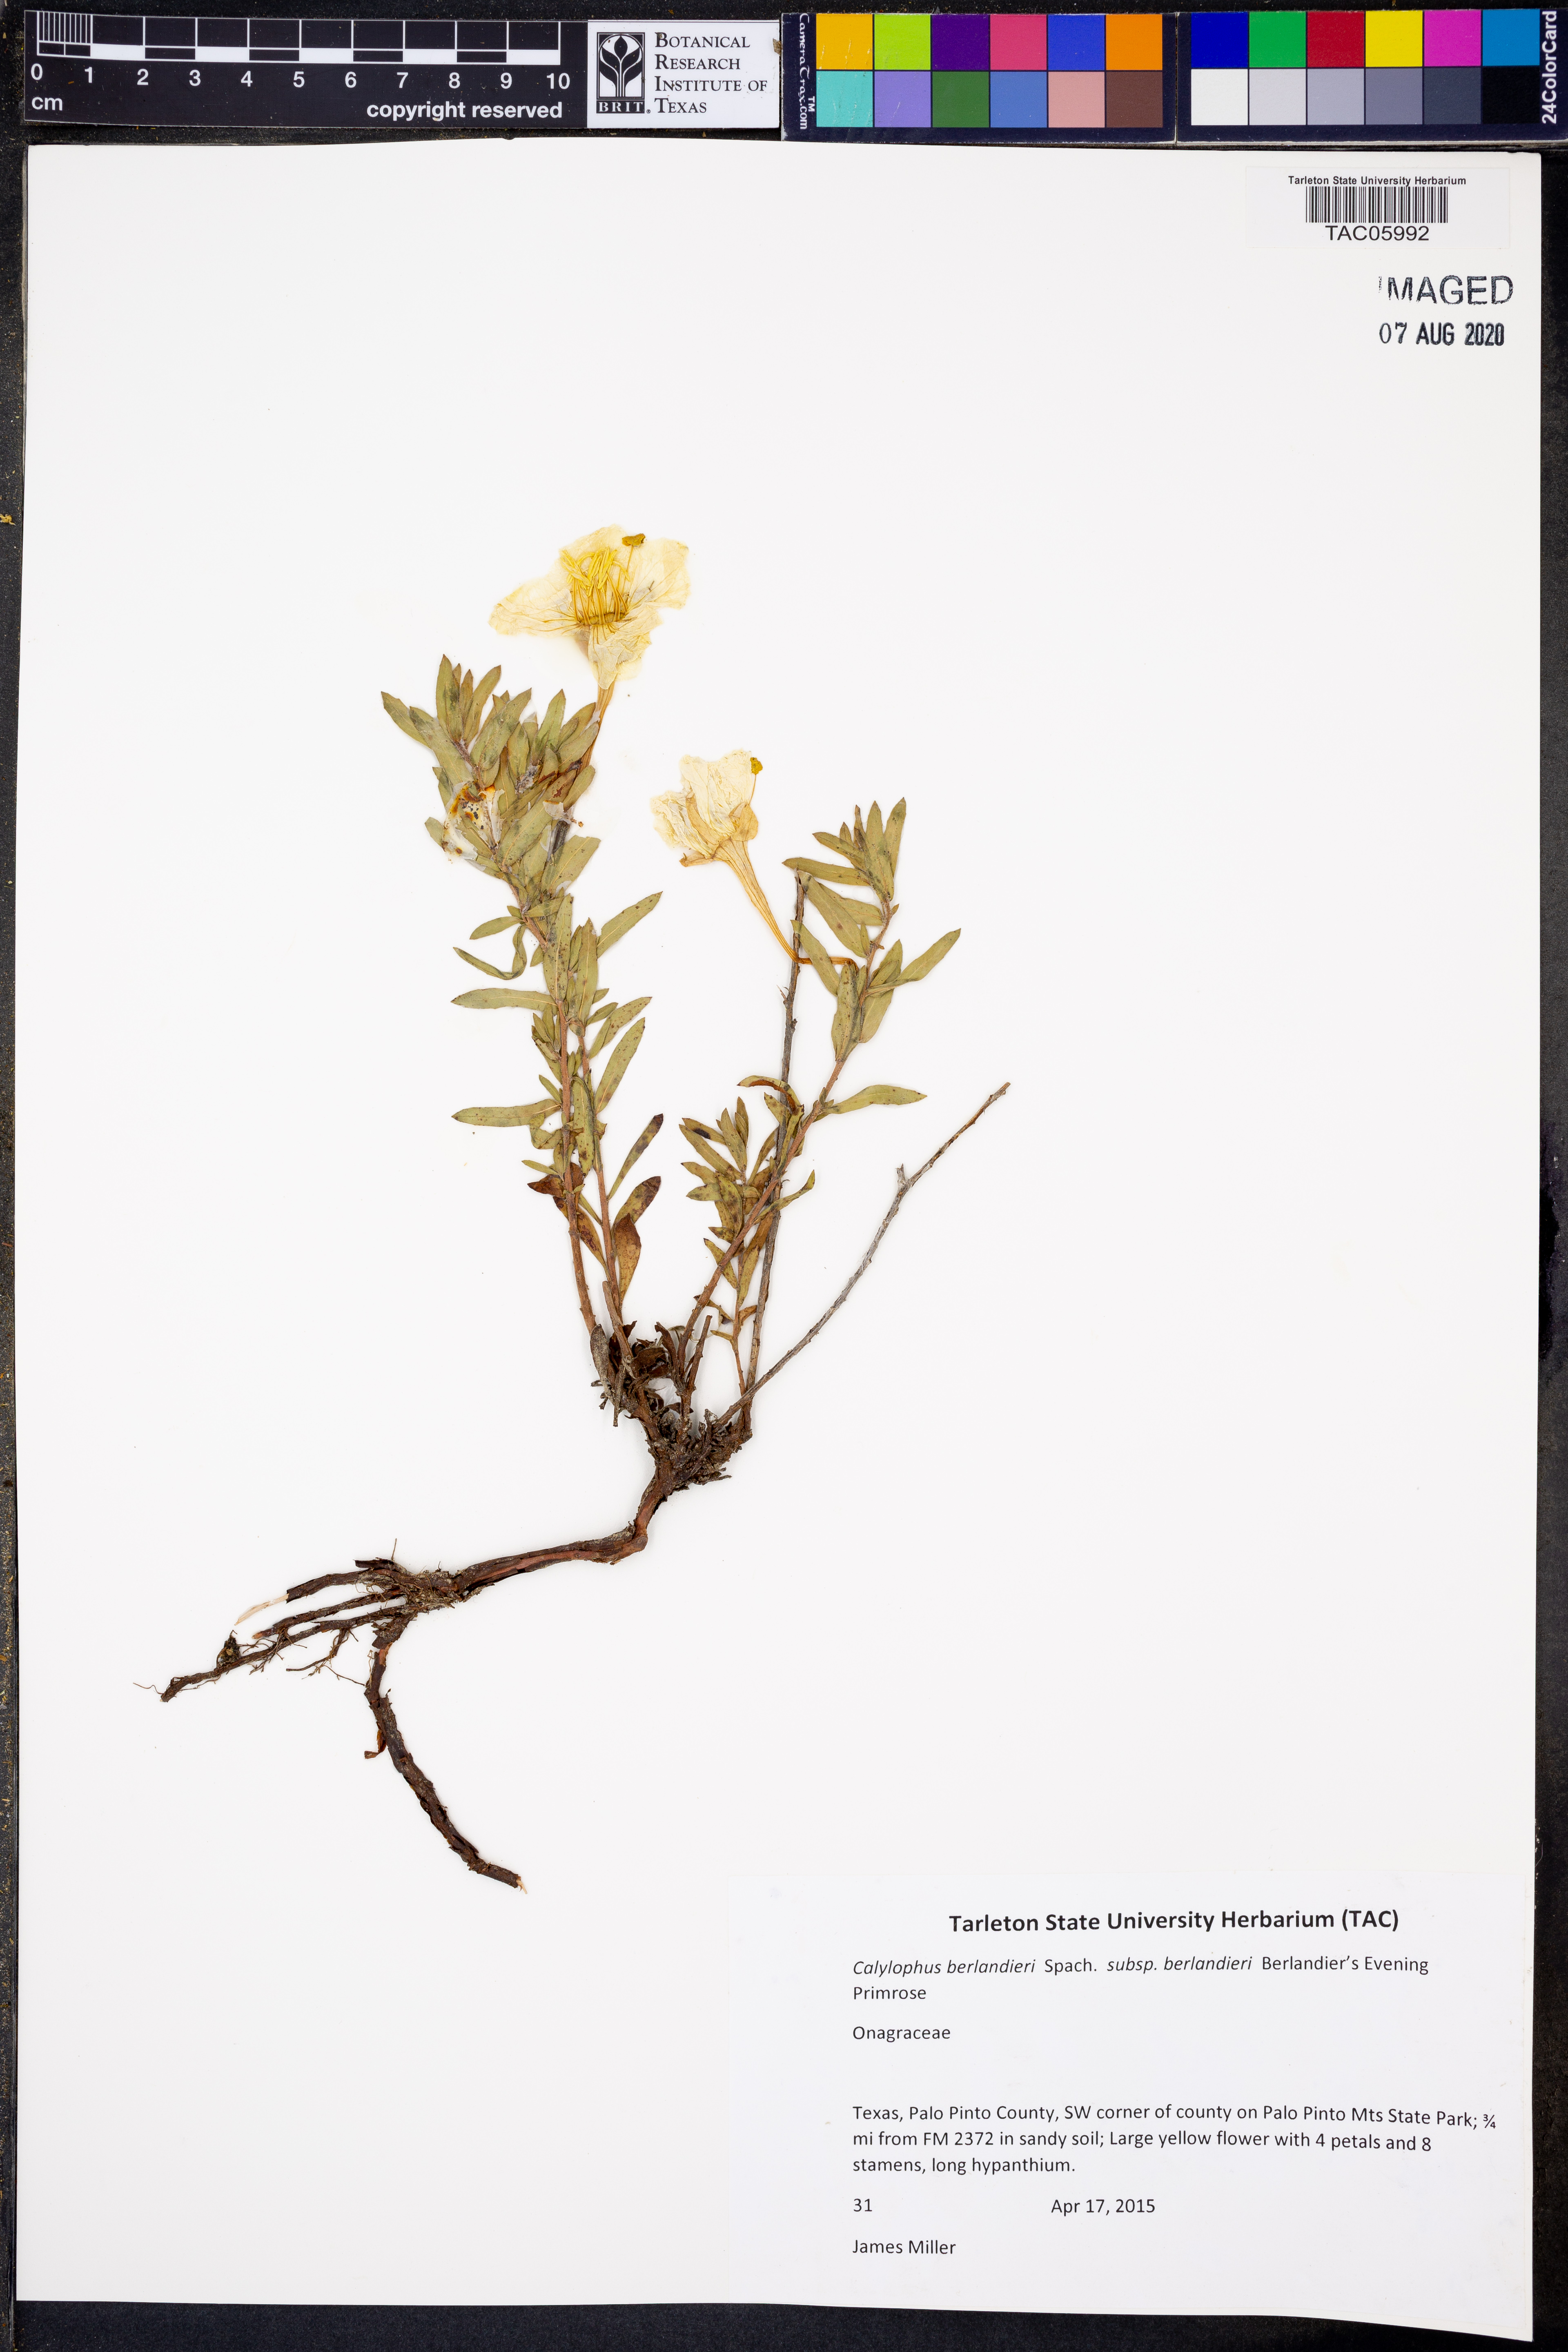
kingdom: Plantae
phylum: Tracheophyta
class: Magnoliopsida
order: Myrtales
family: Onagraceae
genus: Oenothera
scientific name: Oenothera capillifolia
